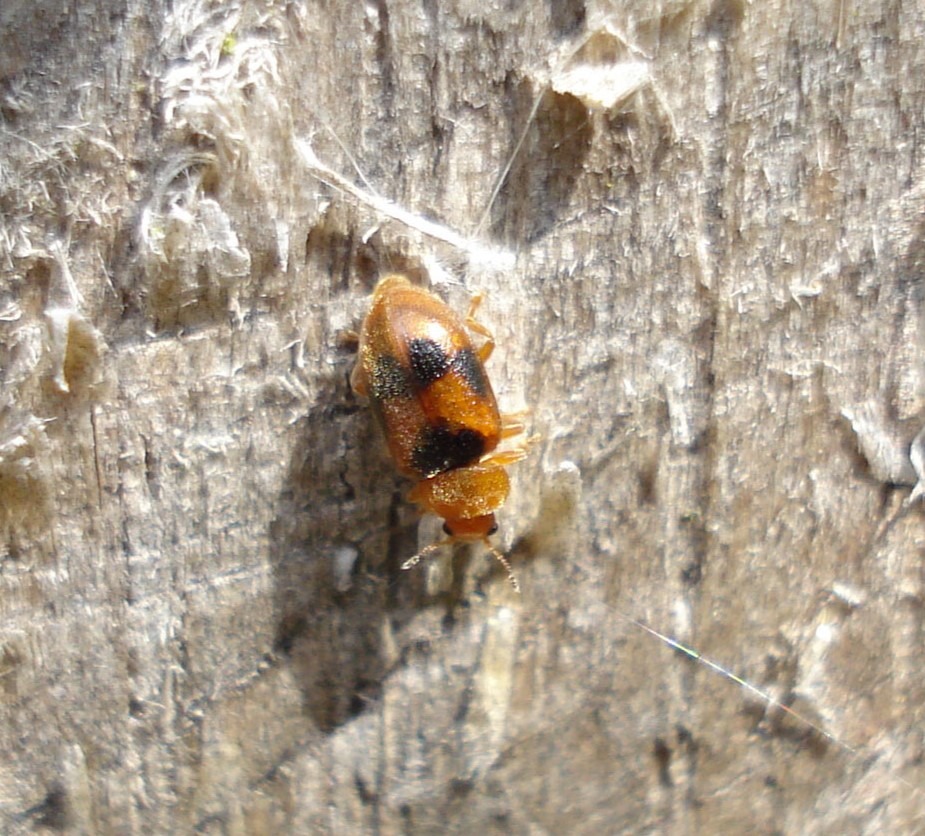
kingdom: Animalia
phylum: Arthropoda
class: Insecta
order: Coleoptera
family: Coccinellidae
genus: Coccidula
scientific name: Coccidula scutellata
